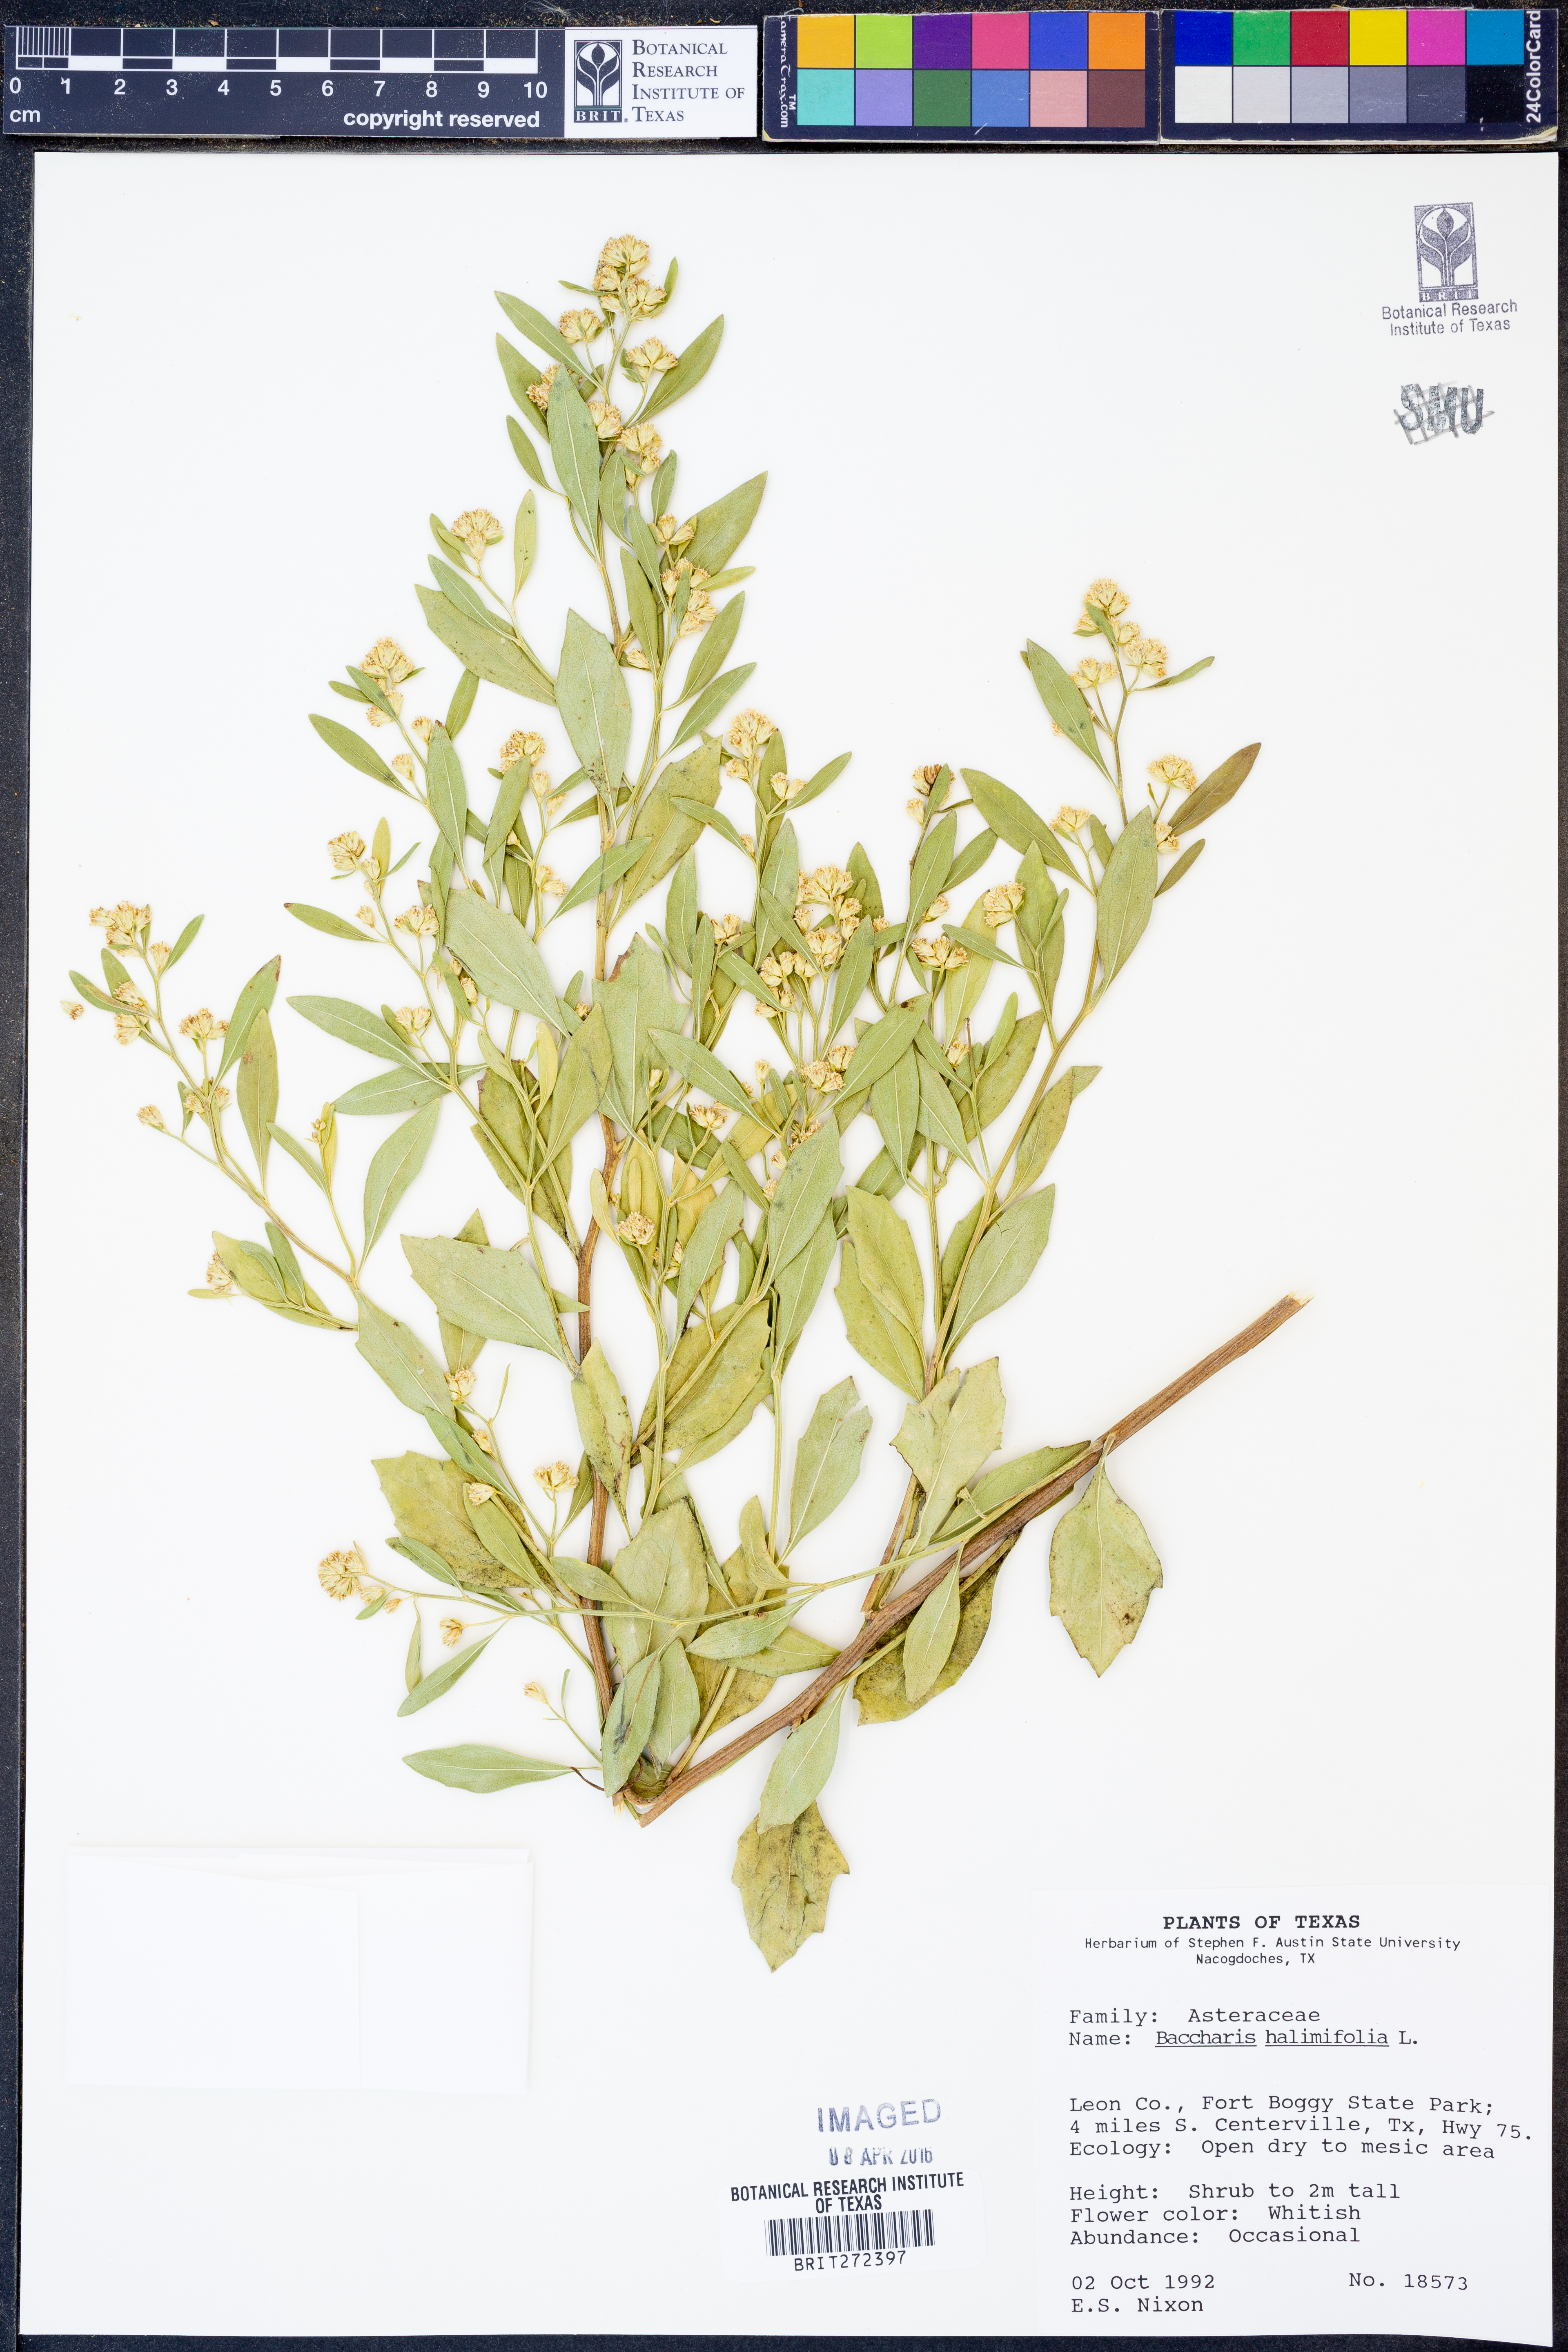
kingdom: Plantae
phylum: Tracheophyta
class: Magnoliopsida
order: Asterales
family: Asteraceae
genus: Nidorella
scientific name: Nidorella ivifolia
